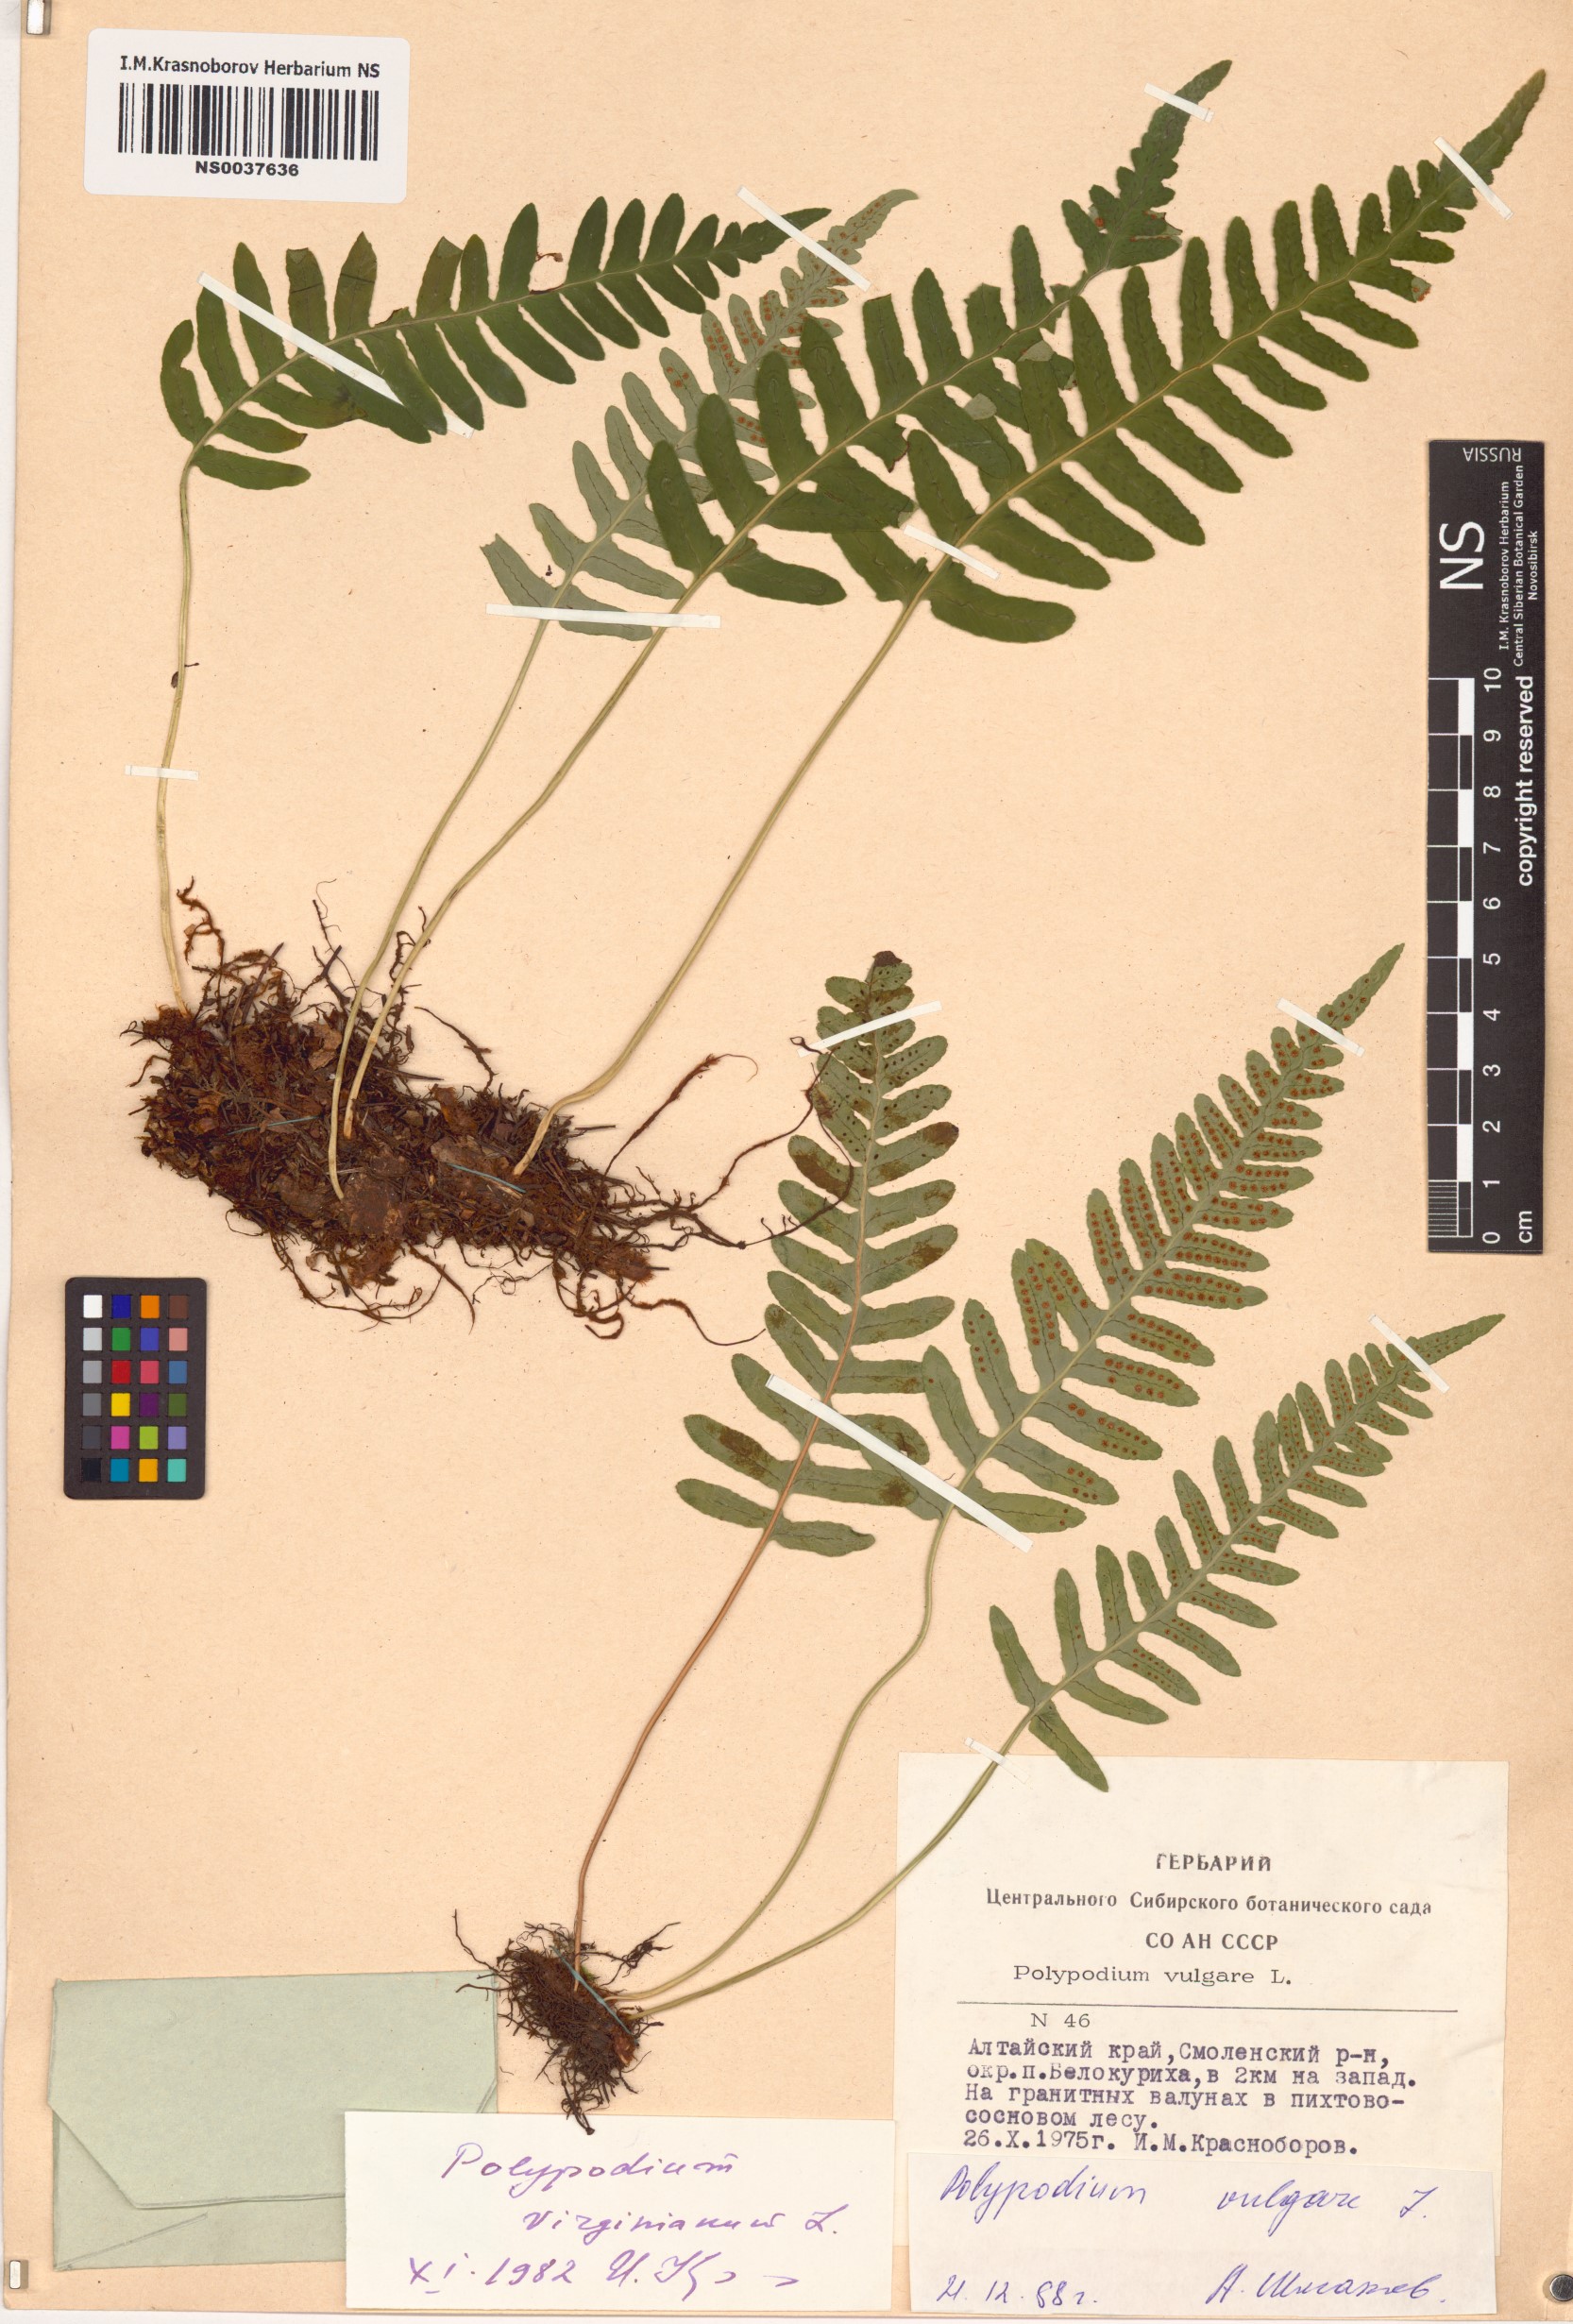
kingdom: Plantae
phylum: Tracheophyta
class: Polypodiopsida
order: Polypodiales
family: Polypodiaceae
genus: Polypodium
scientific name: Polypodium vulgare
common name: Common polypody
